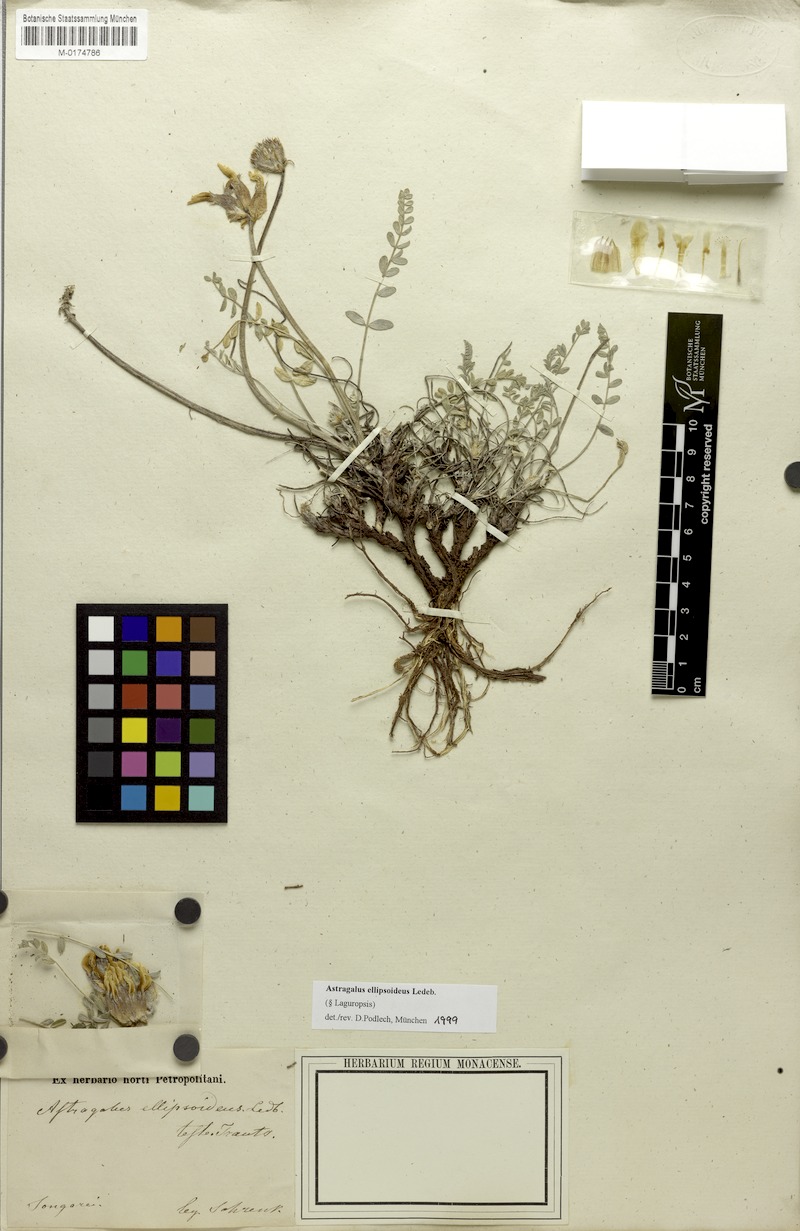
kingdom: Plantae
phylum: Tracheophyta
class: Magnoliopsida
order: Fabales
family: Fabaceae
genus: Astragalus
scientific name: Astragalus ellipsoideus
